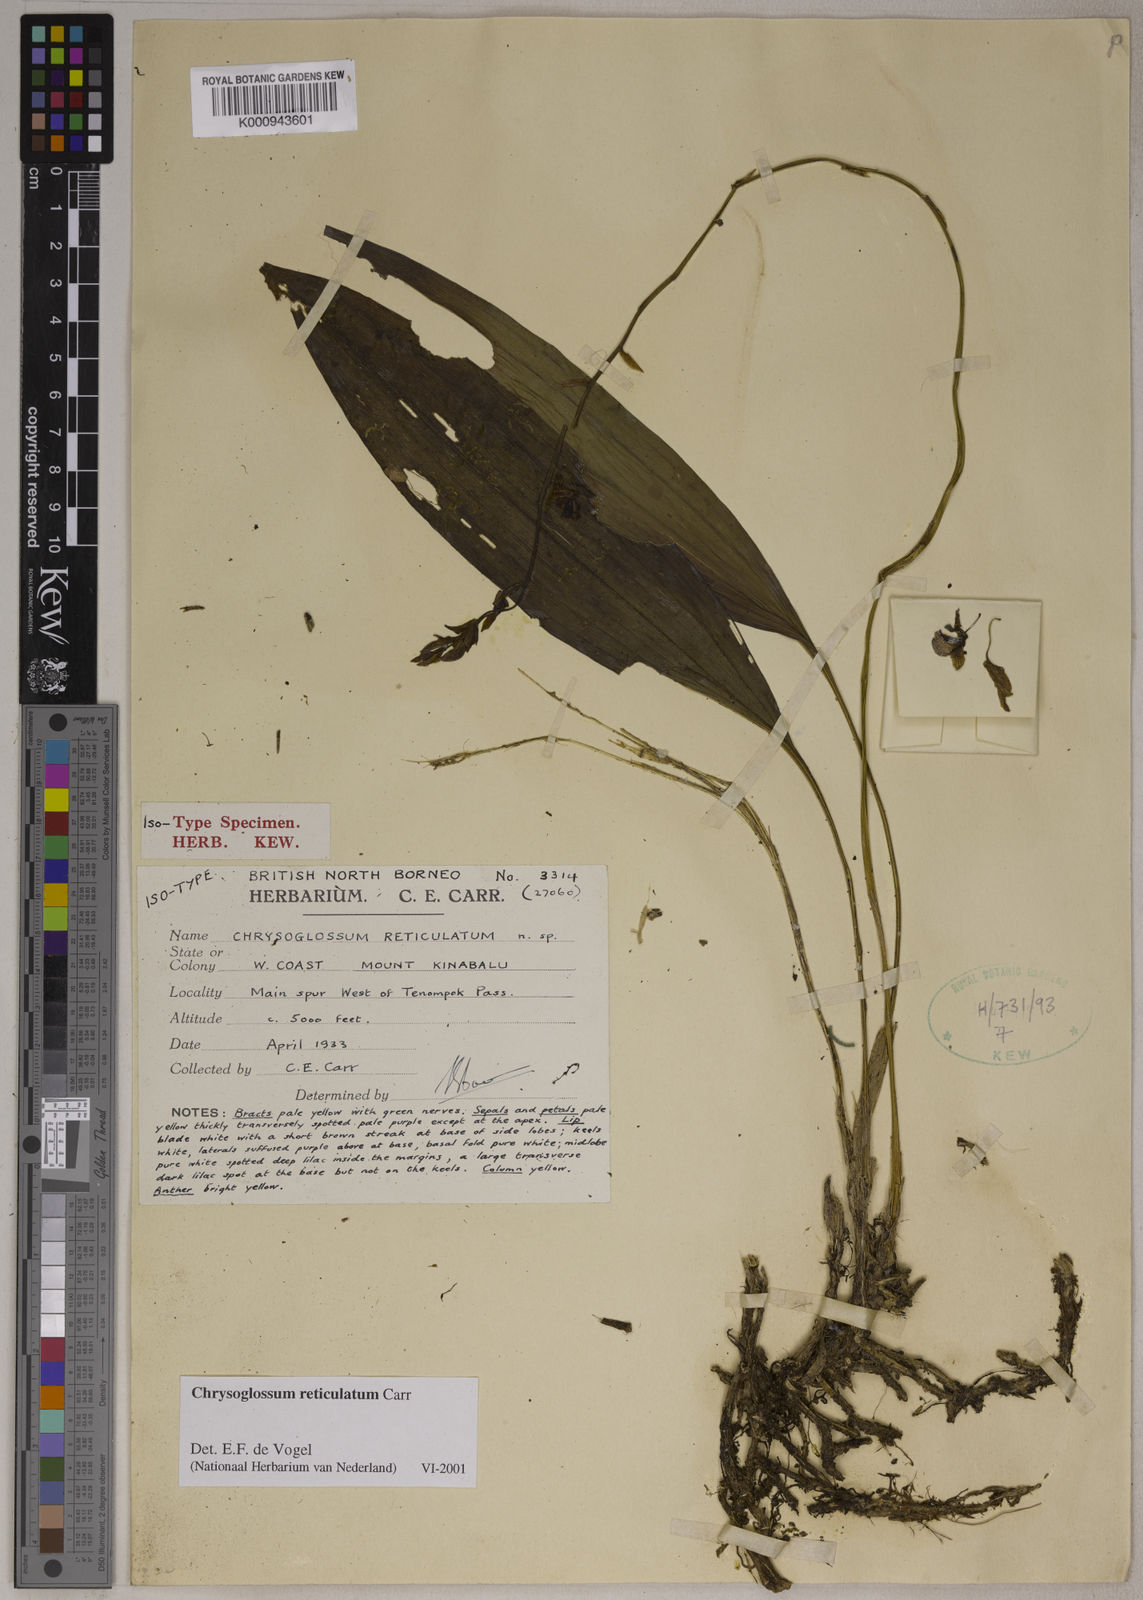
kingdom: Plantae
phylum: Tracheophyta
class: Liliopsida
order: Asparagales
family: Orchidaceae
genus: Chrysoglossum
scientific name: Chrysoglossum reticulatum
